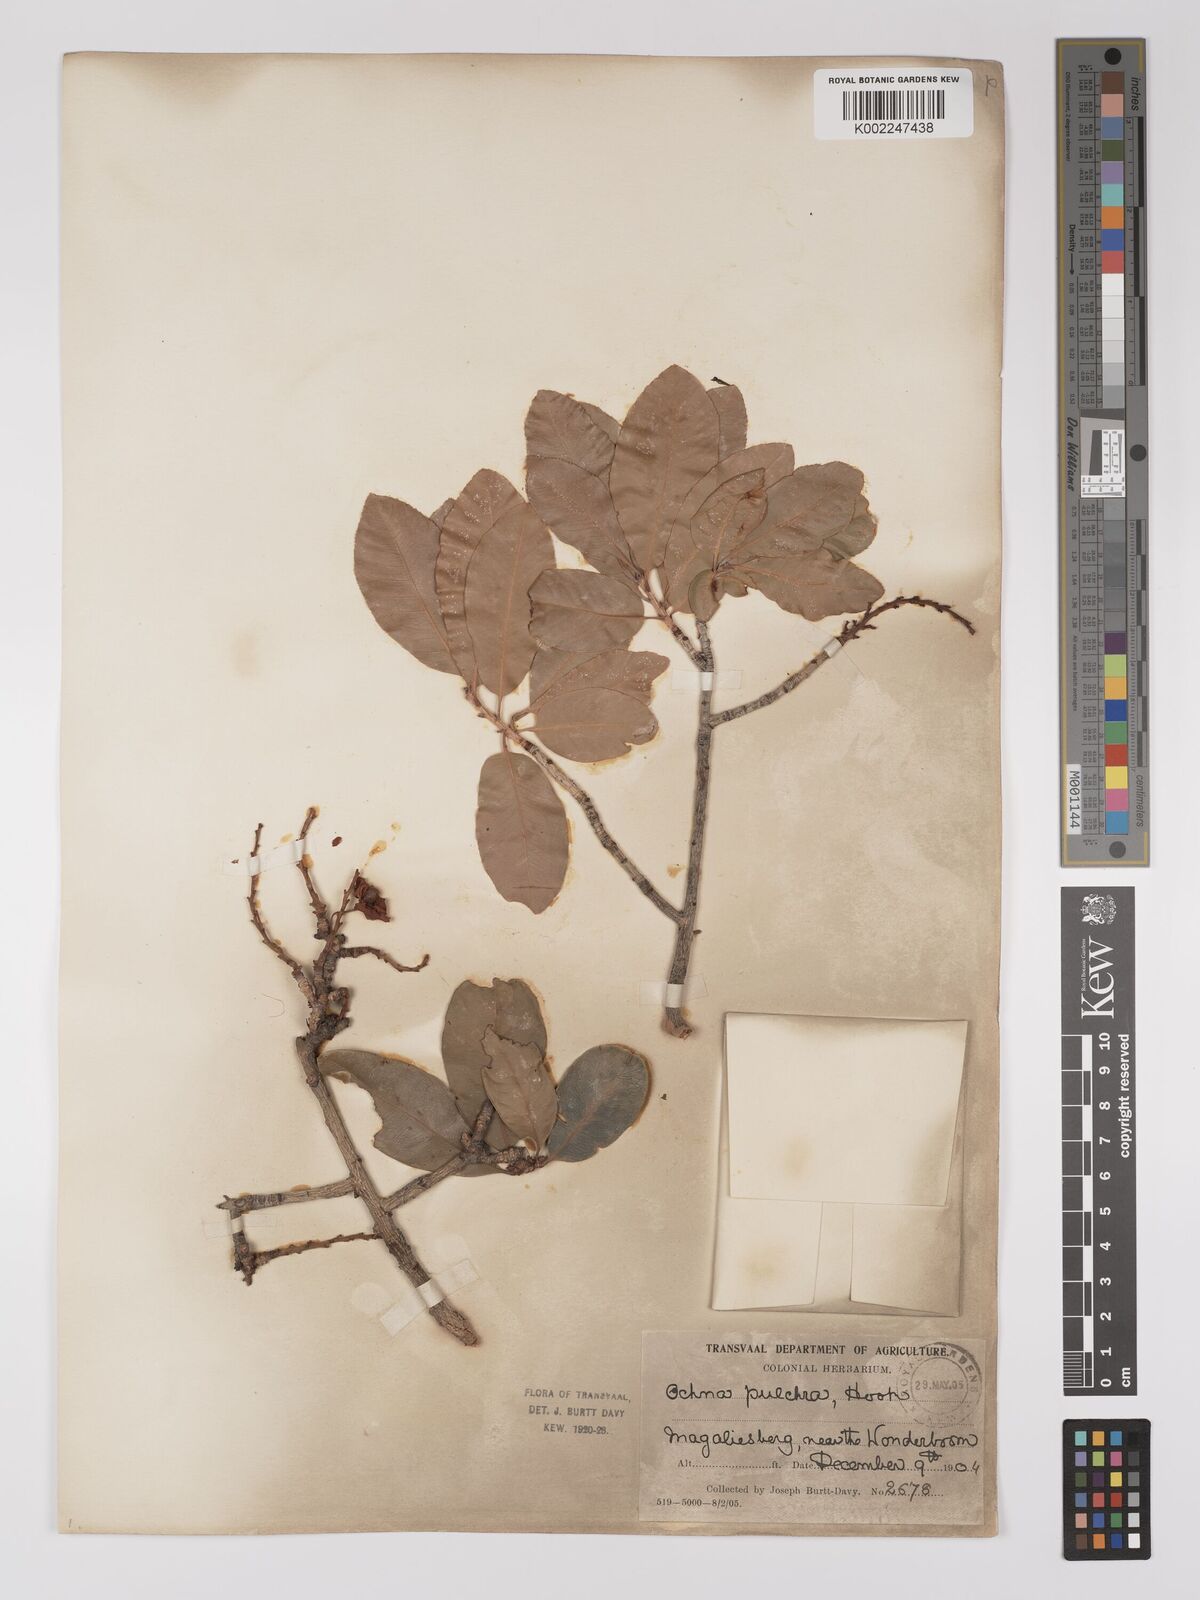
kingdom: Plantae
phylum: Tracheophyta
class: Magnoliopsida
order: Malpighiales
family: Ochnaceae
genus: Ochna
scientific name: Ochna pulchra
